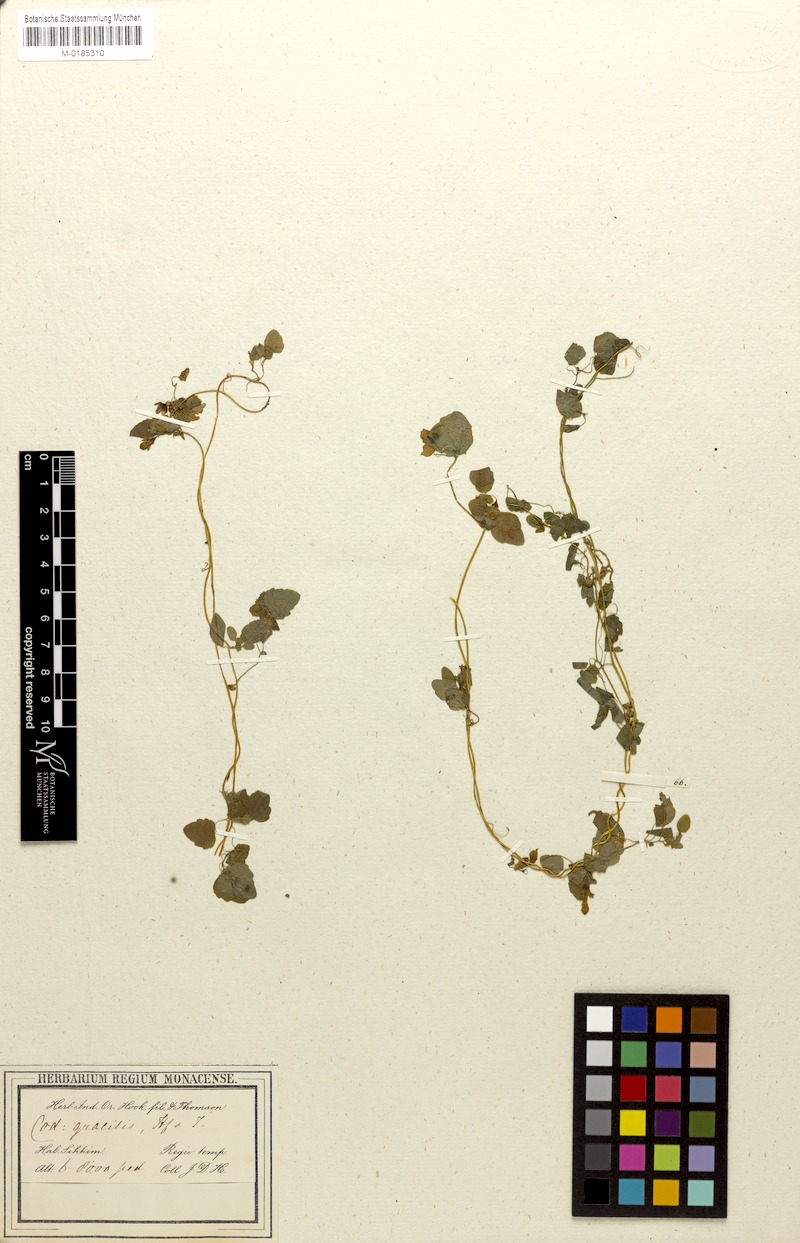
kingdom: Plantae
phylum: Tracheophyta
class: Magnoliopsida
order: Asterales
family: Campanulaceae
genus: Codonopsis
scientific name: Codonopsis gracilis
